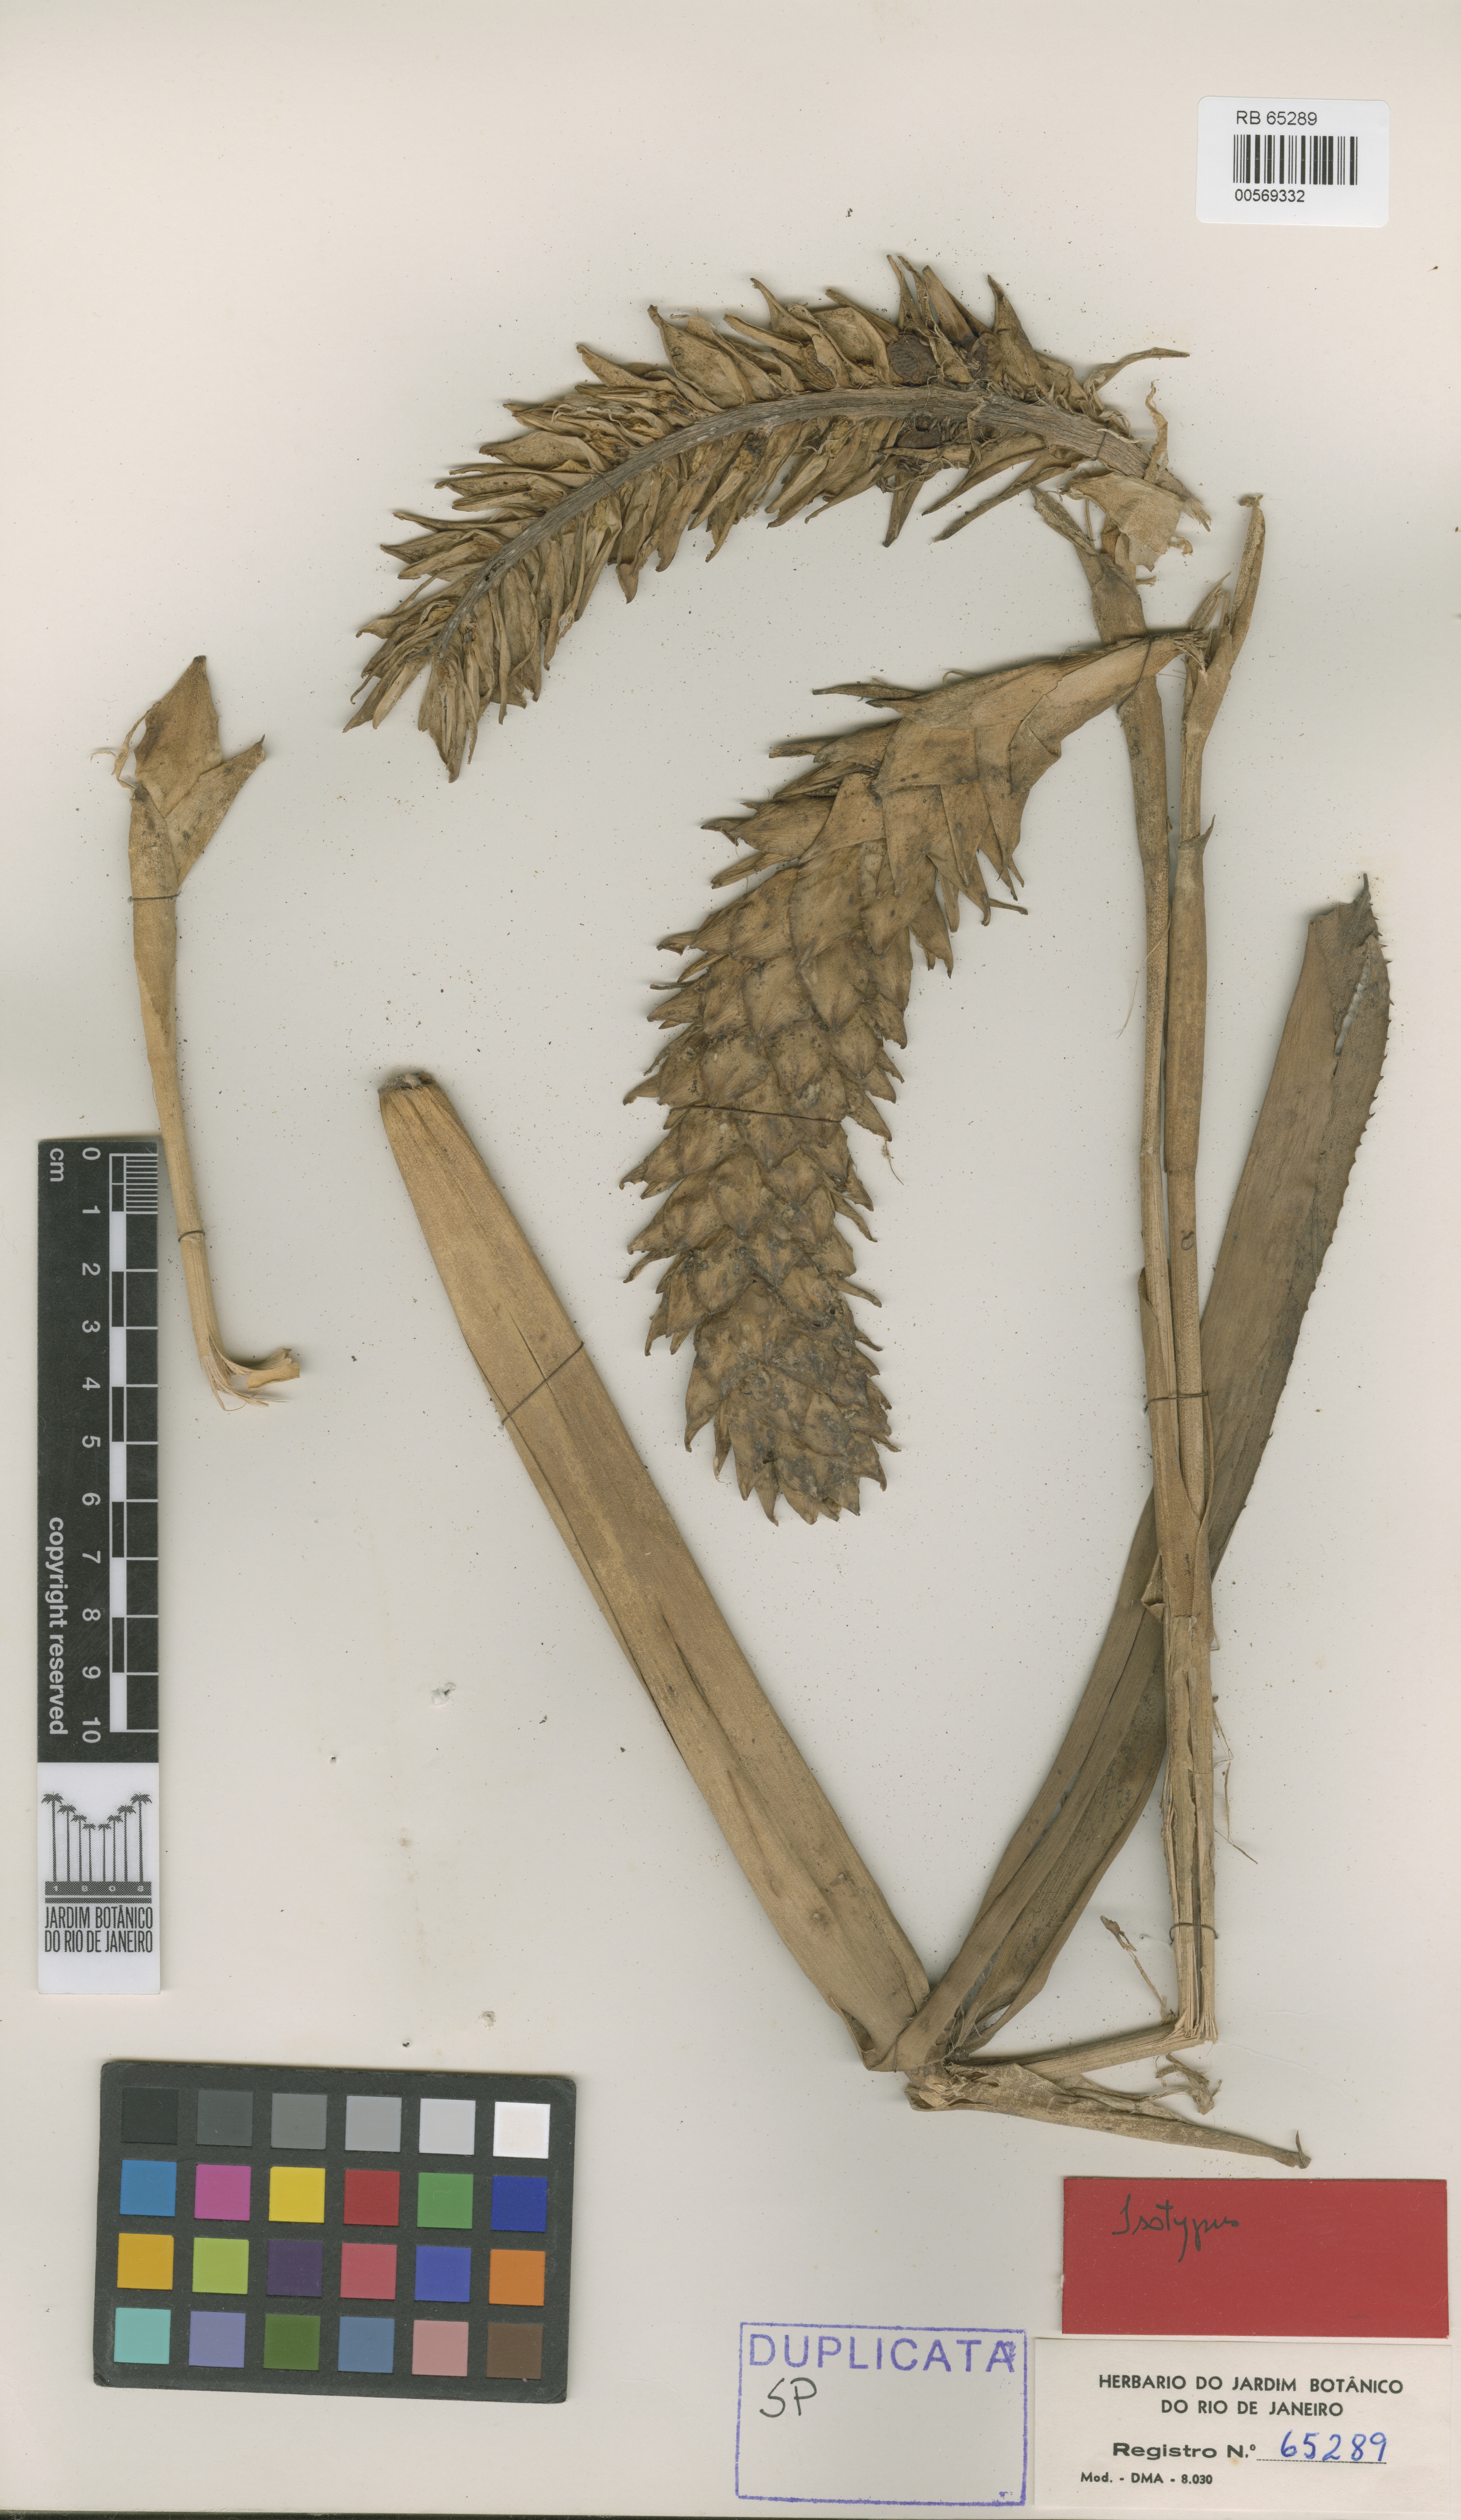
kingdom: Plantae
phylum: Tracheophyta
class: Liliopsida
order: Poales
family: Bromeliaceae
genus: Quesnelia
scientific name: Quesnelia
